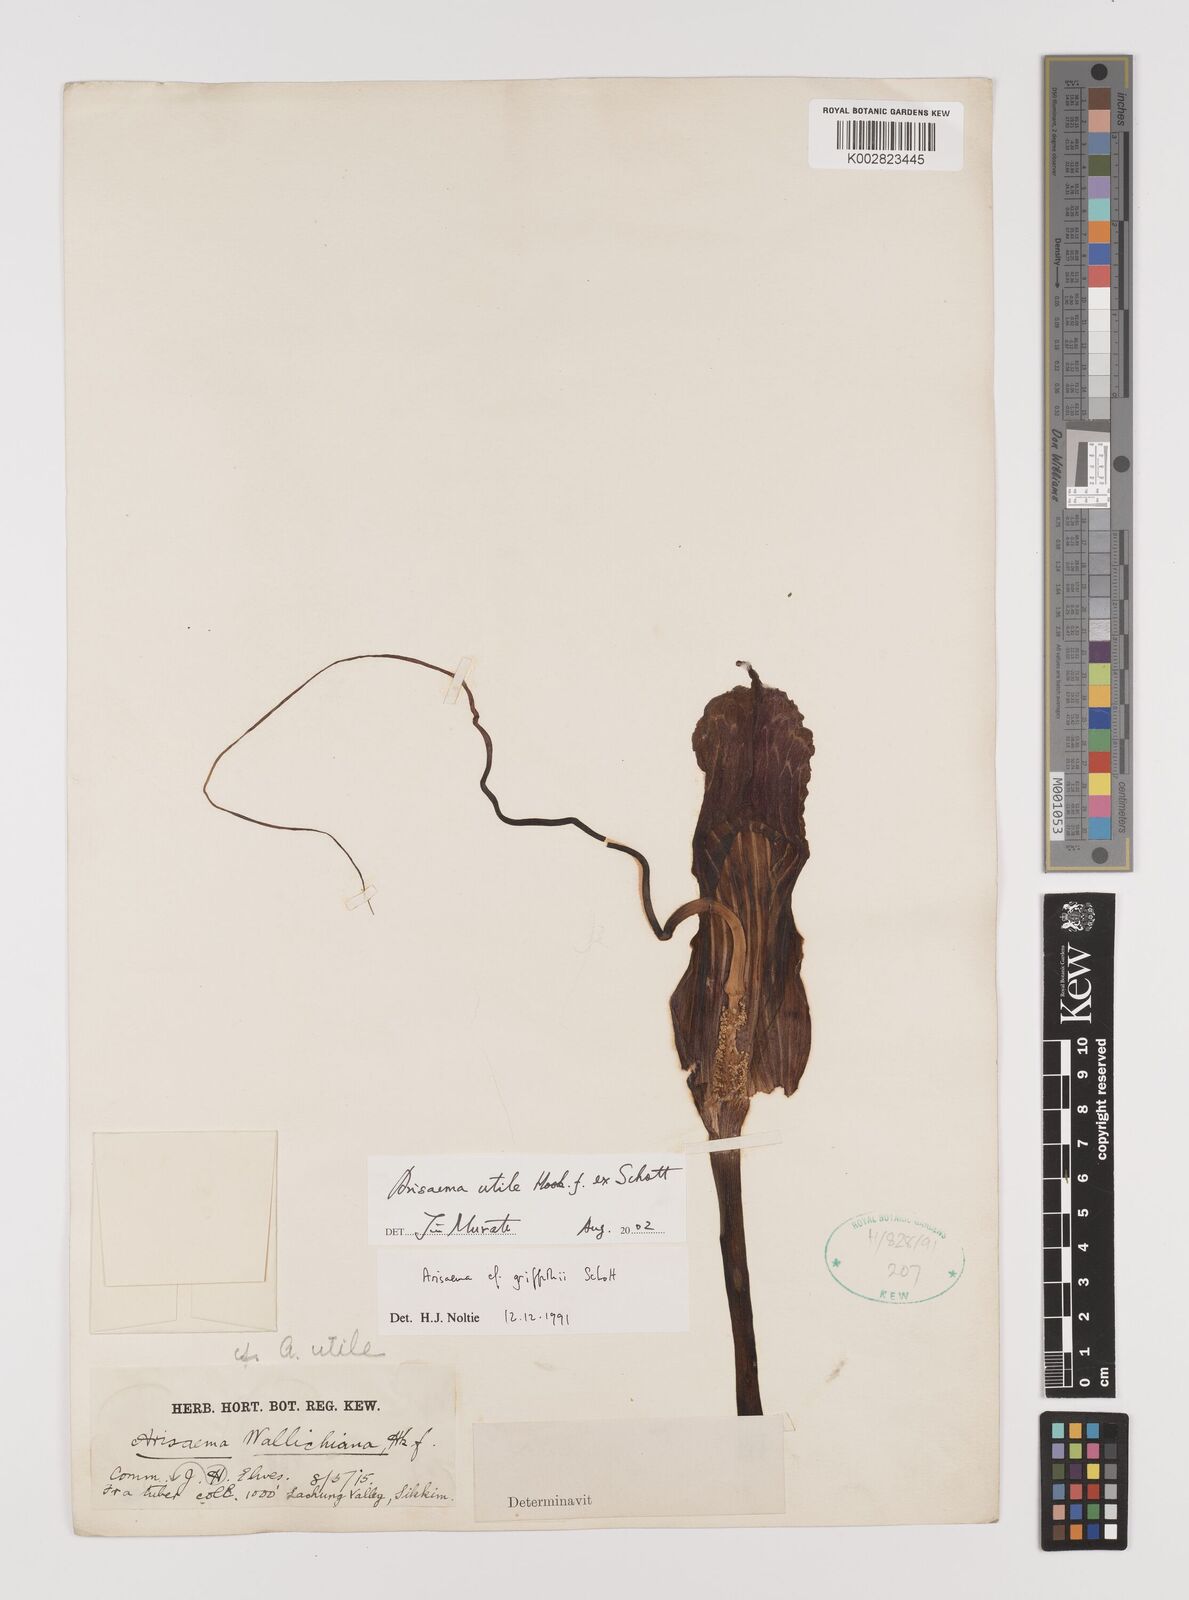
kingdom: Plantae
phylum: Tracheophyta
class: Liliopsida
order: Alismatales
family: Araceae
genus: Arisaema
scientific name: Arisaema utile
